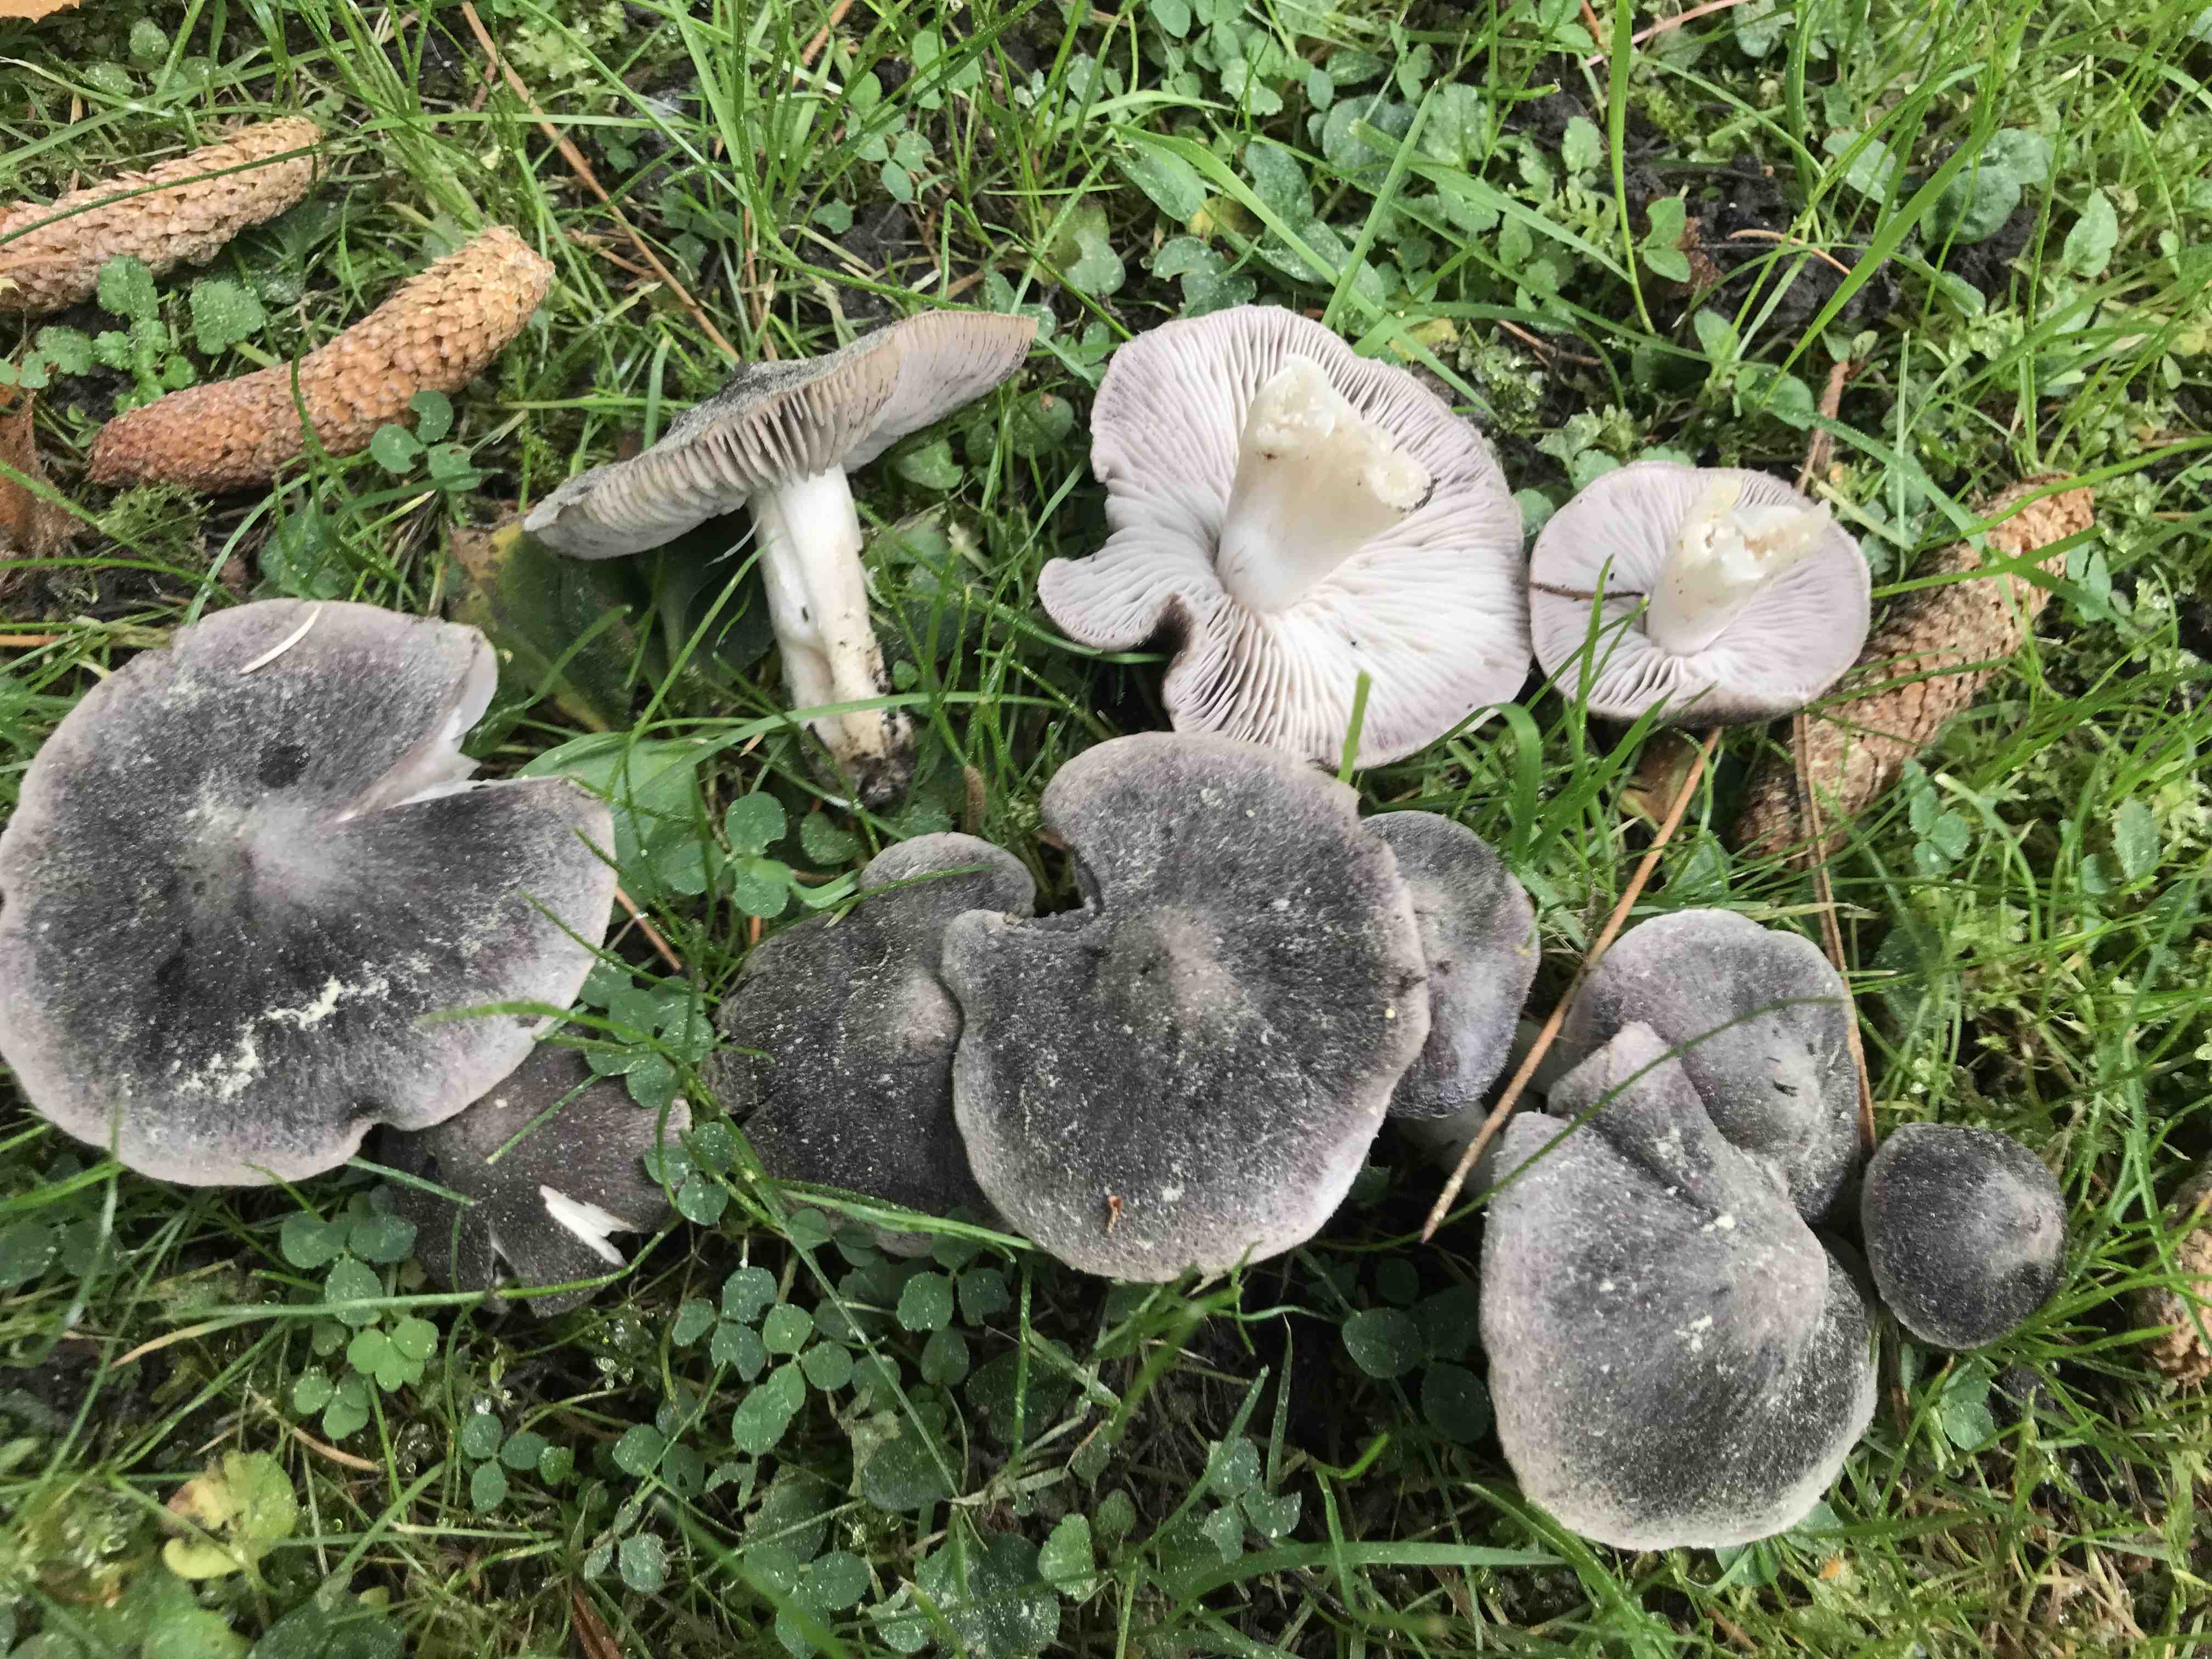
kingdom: Fungi
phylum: Basidiomycota
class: Agaricomycetes
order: Agaricales
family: Tricholomataceae
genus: Tricholoma
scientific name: Tricholoma terreum
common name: jordfarvet ridderhat
